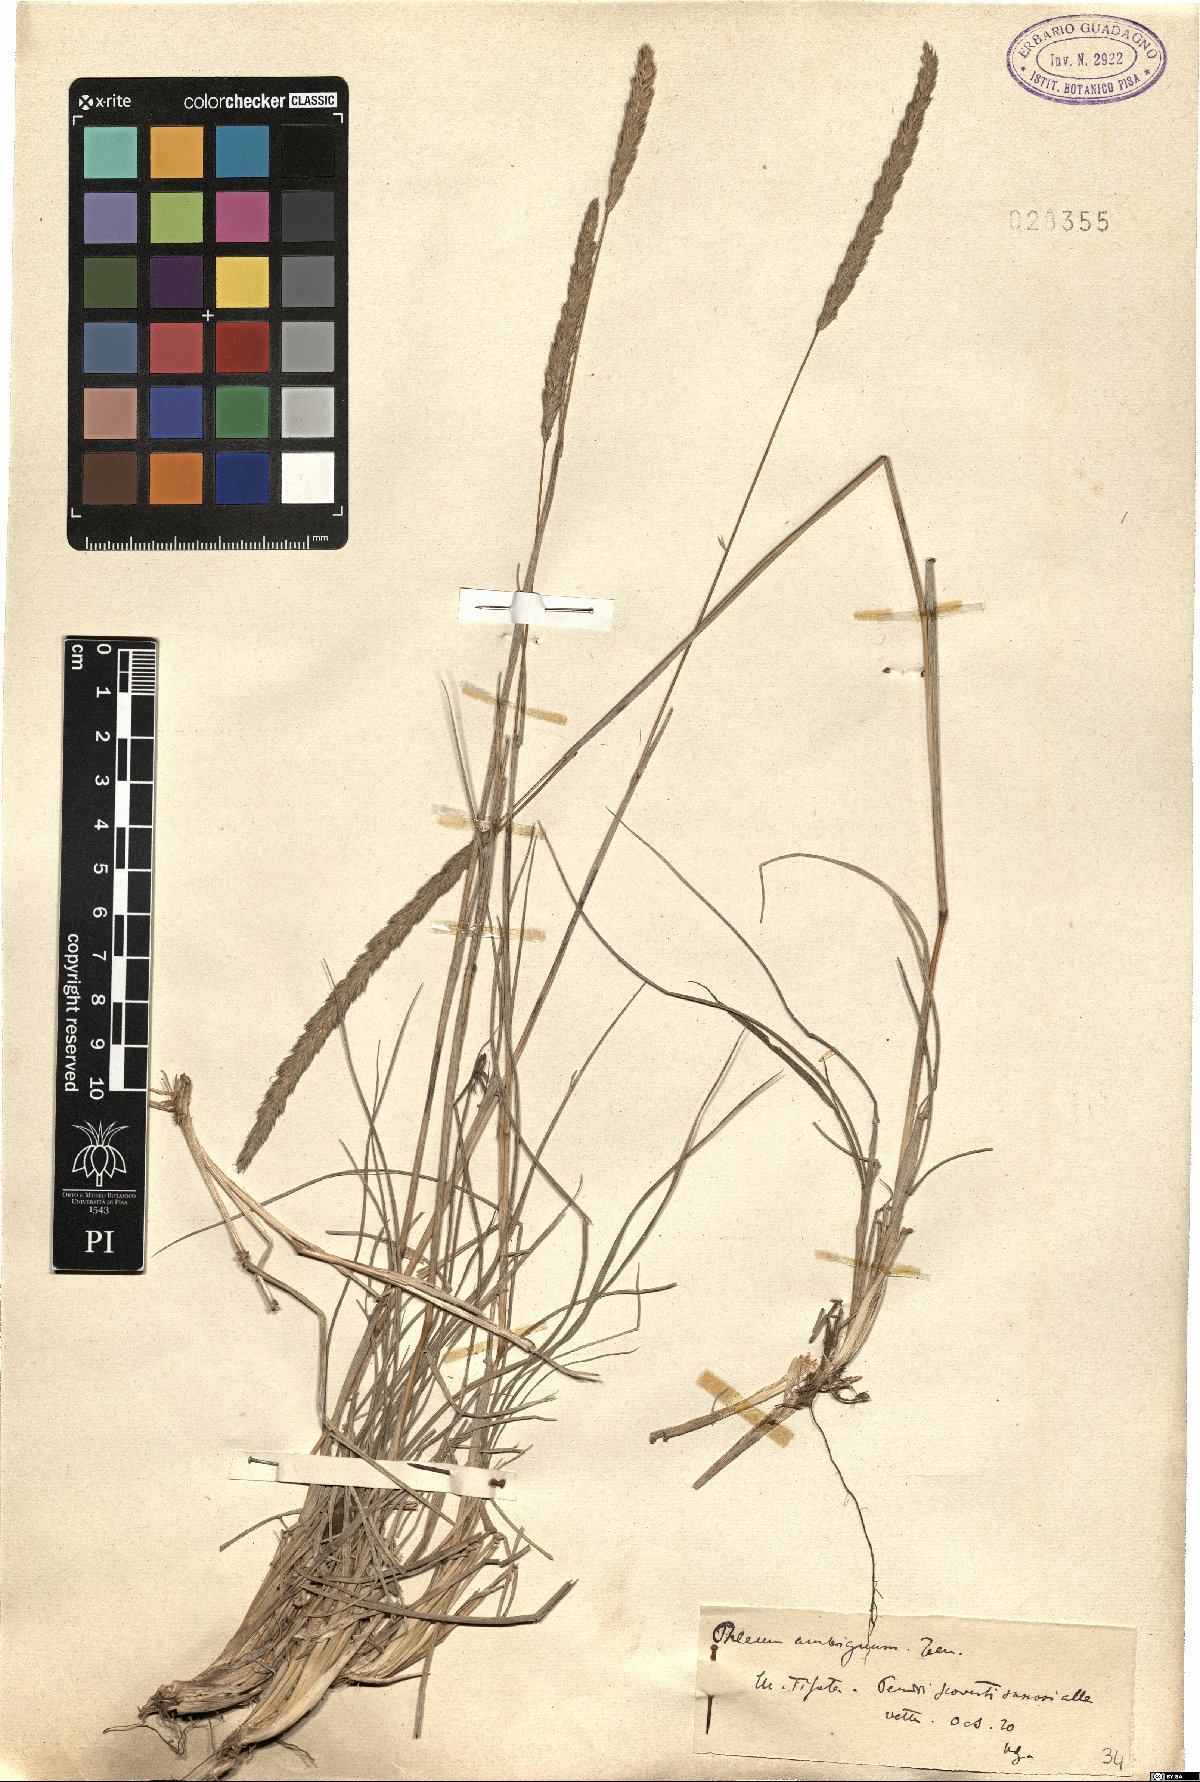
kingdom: Plantae
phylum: Tracheophyta
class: Liliopsida
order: Poales
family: Poaceae
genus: Phleum
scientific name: Phleum hirsutum
